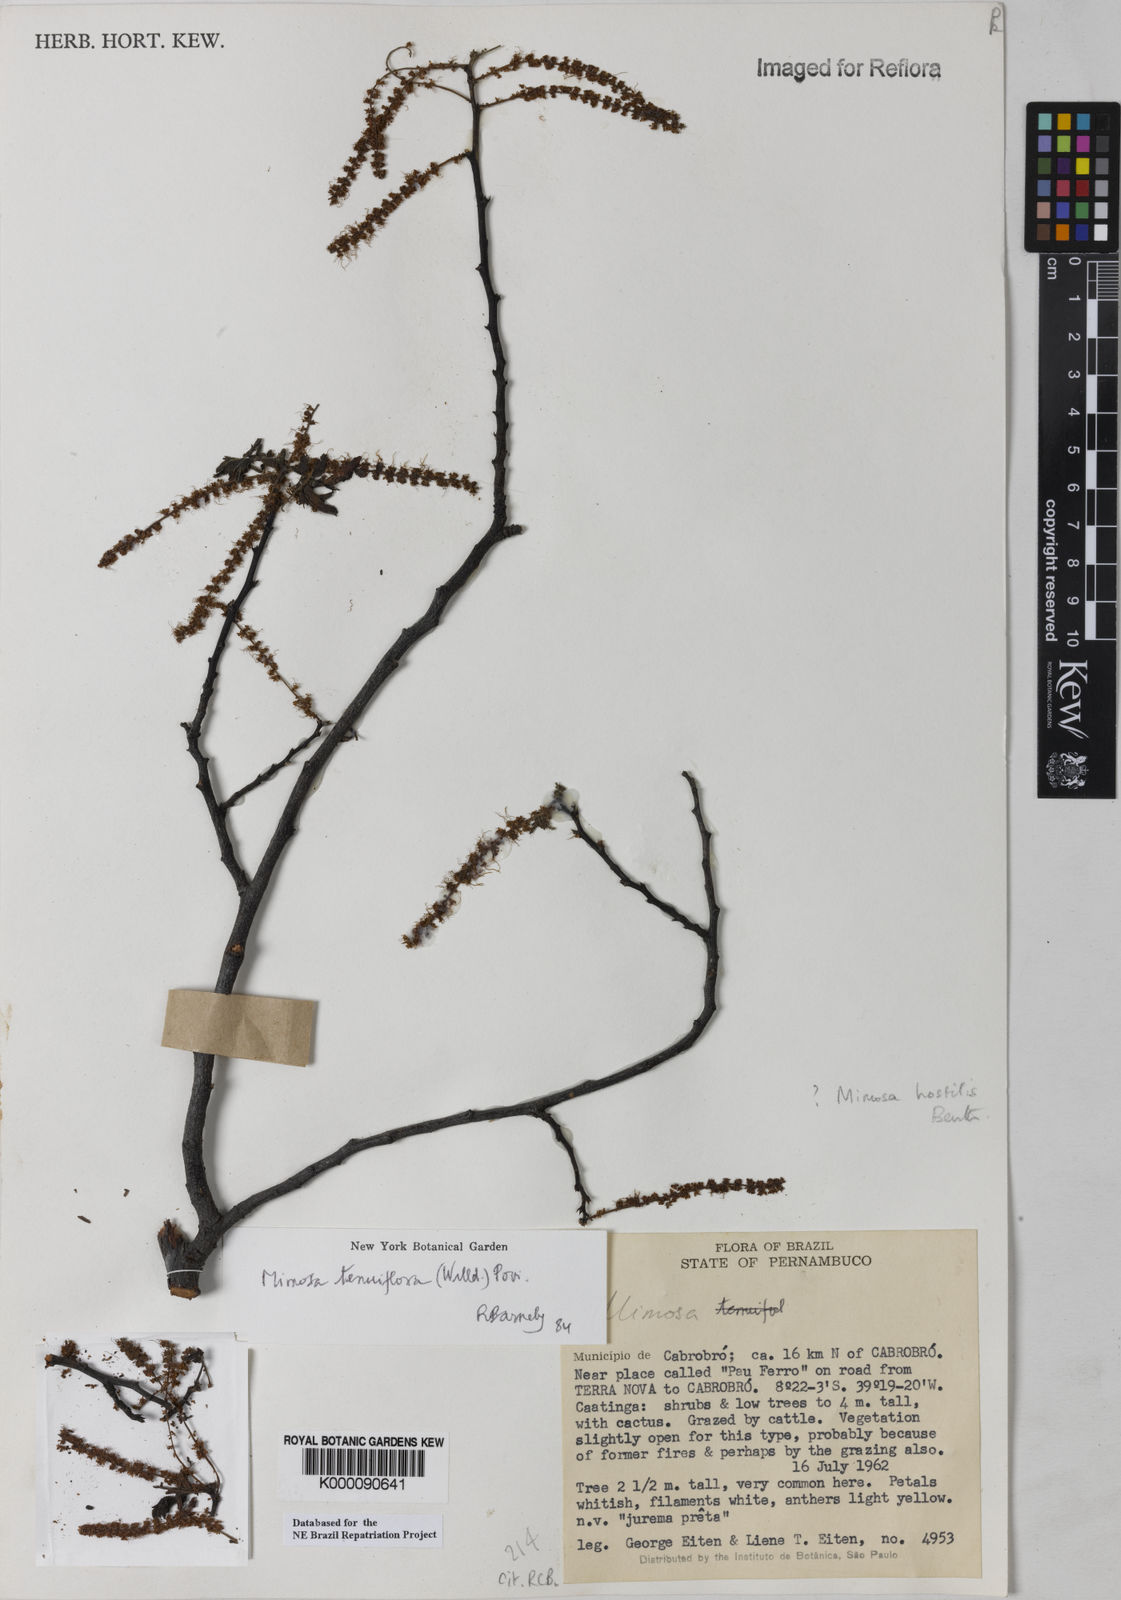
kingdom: Plantae
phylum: Tracheophyta
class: Magnoliopsida
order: Fabales
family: Fabaceae
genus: Mimosa
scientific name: Mimosa tenuiflora
